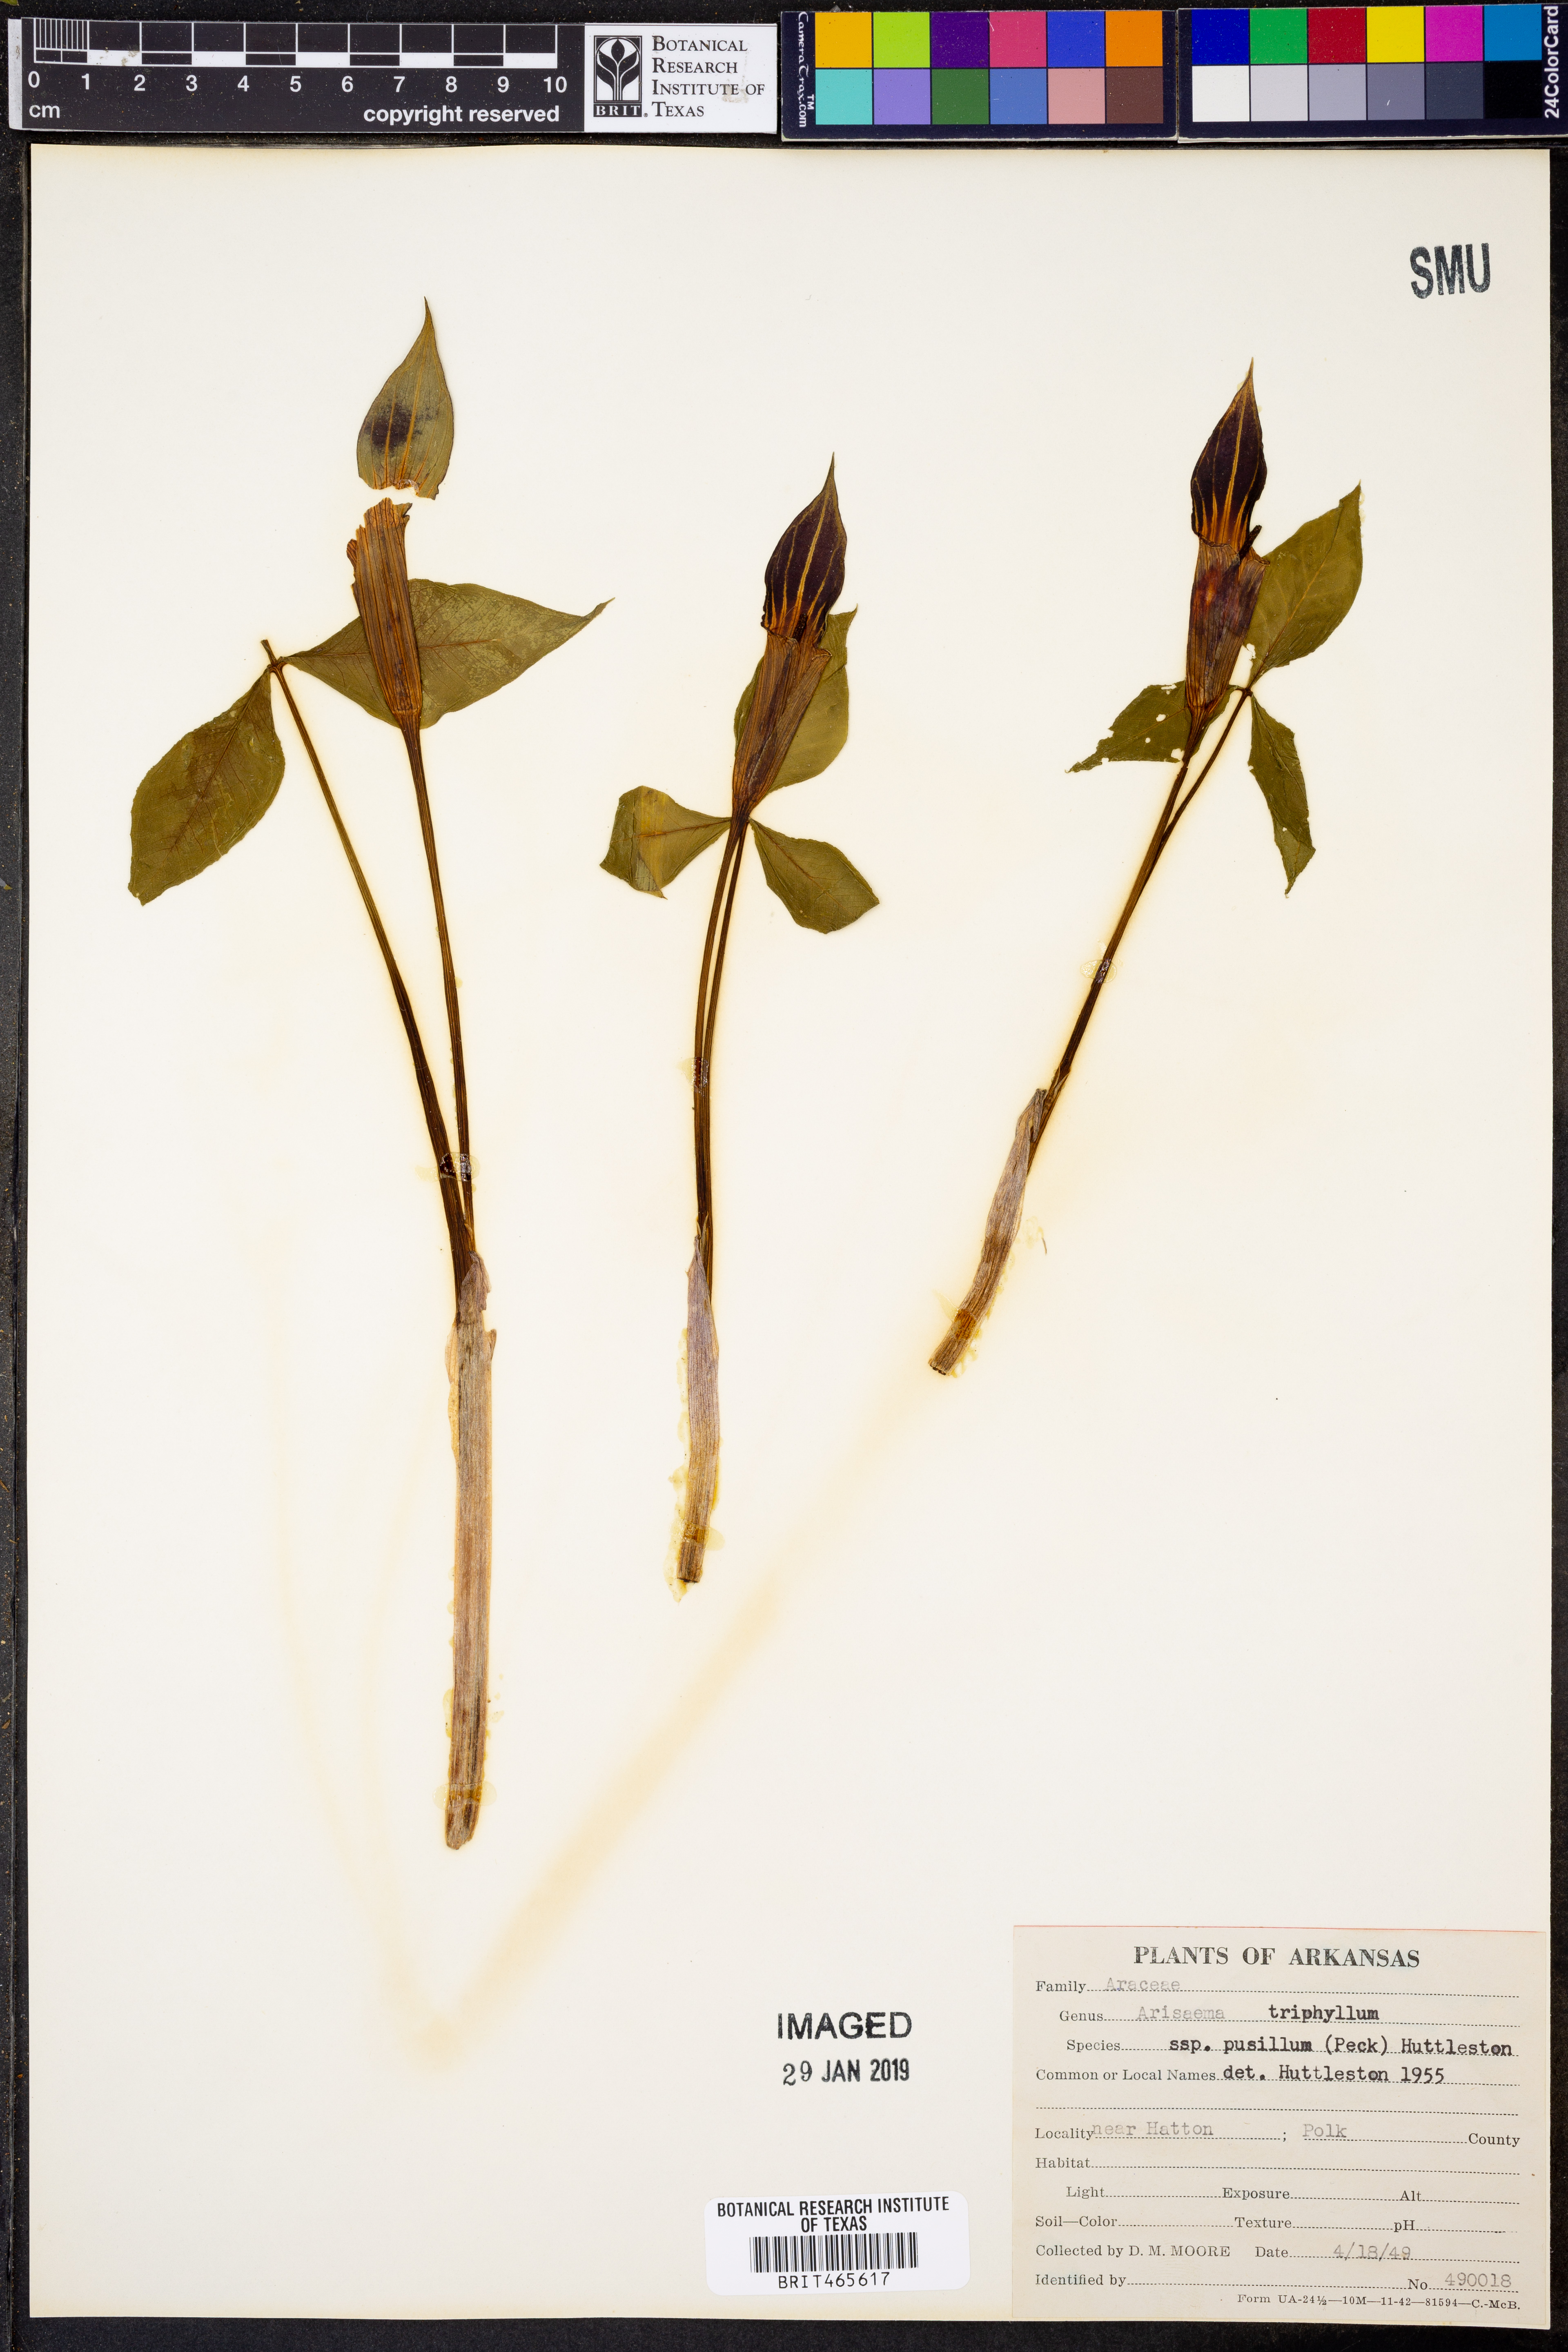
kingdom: Plantae
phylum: Tracheophyta
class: Liliopsida
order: Alismatales
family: Araceae
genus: Arisaema
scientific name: Arisaema pusillum
